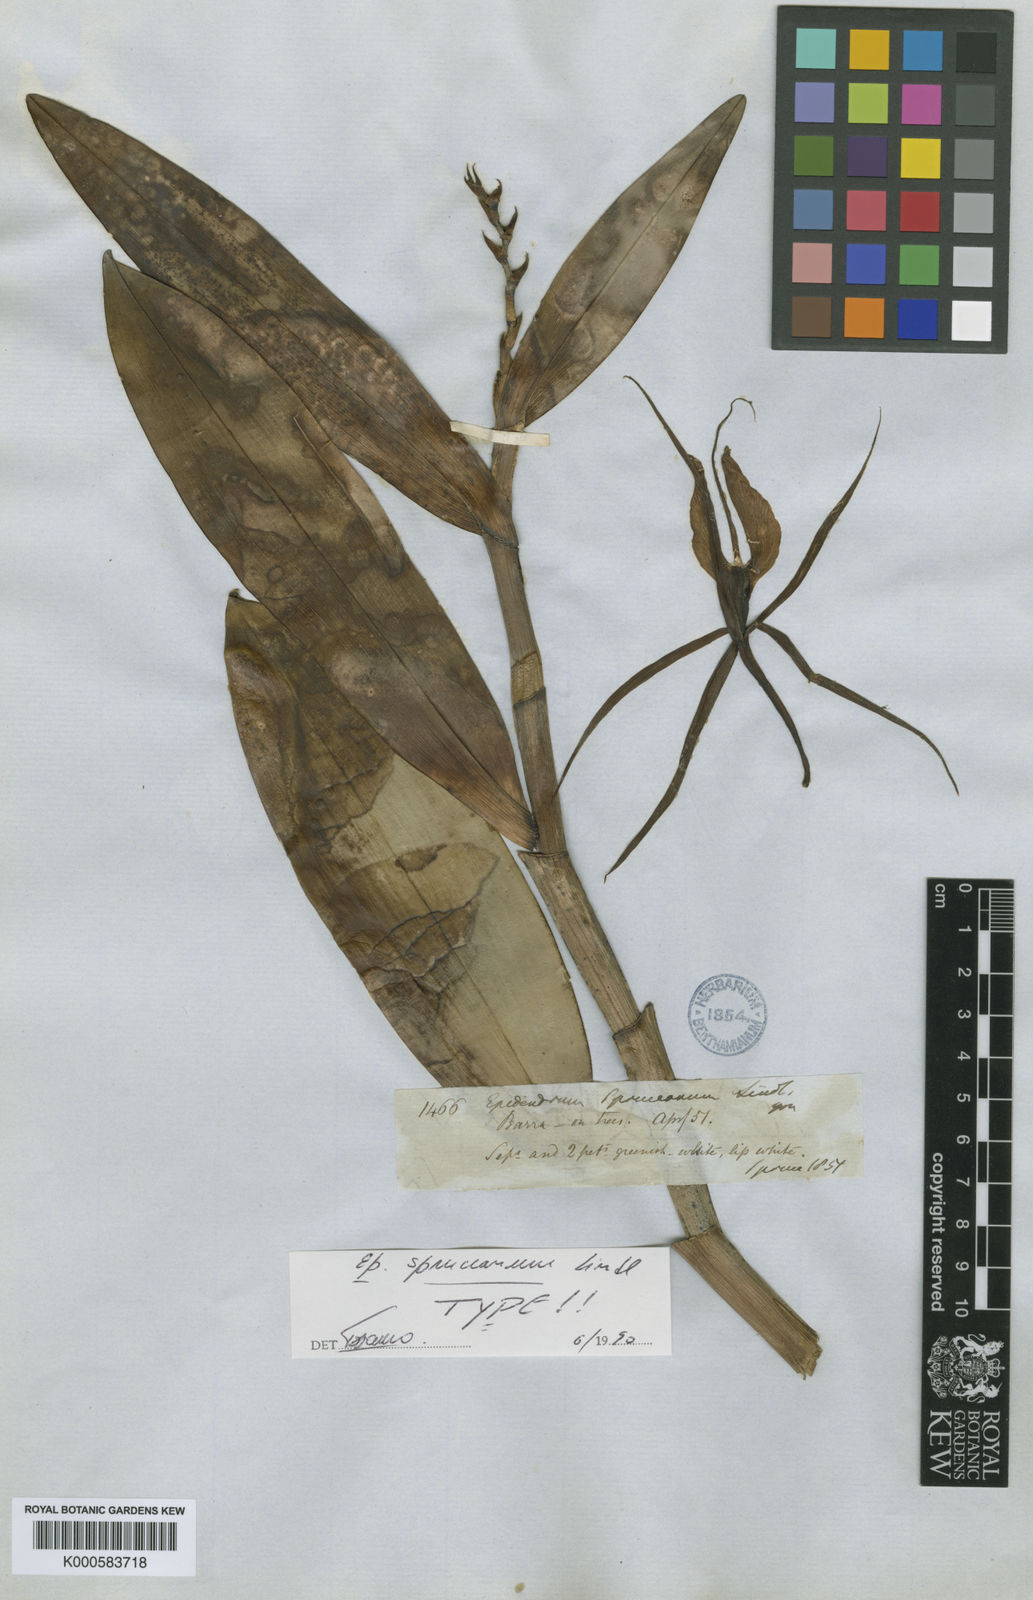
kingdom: Plantae
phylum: Tracheophyta
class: Liliopsida
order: Asparagales
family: Orchidaceae
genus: Epidendrum
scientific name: Epidendrum spruceanum
